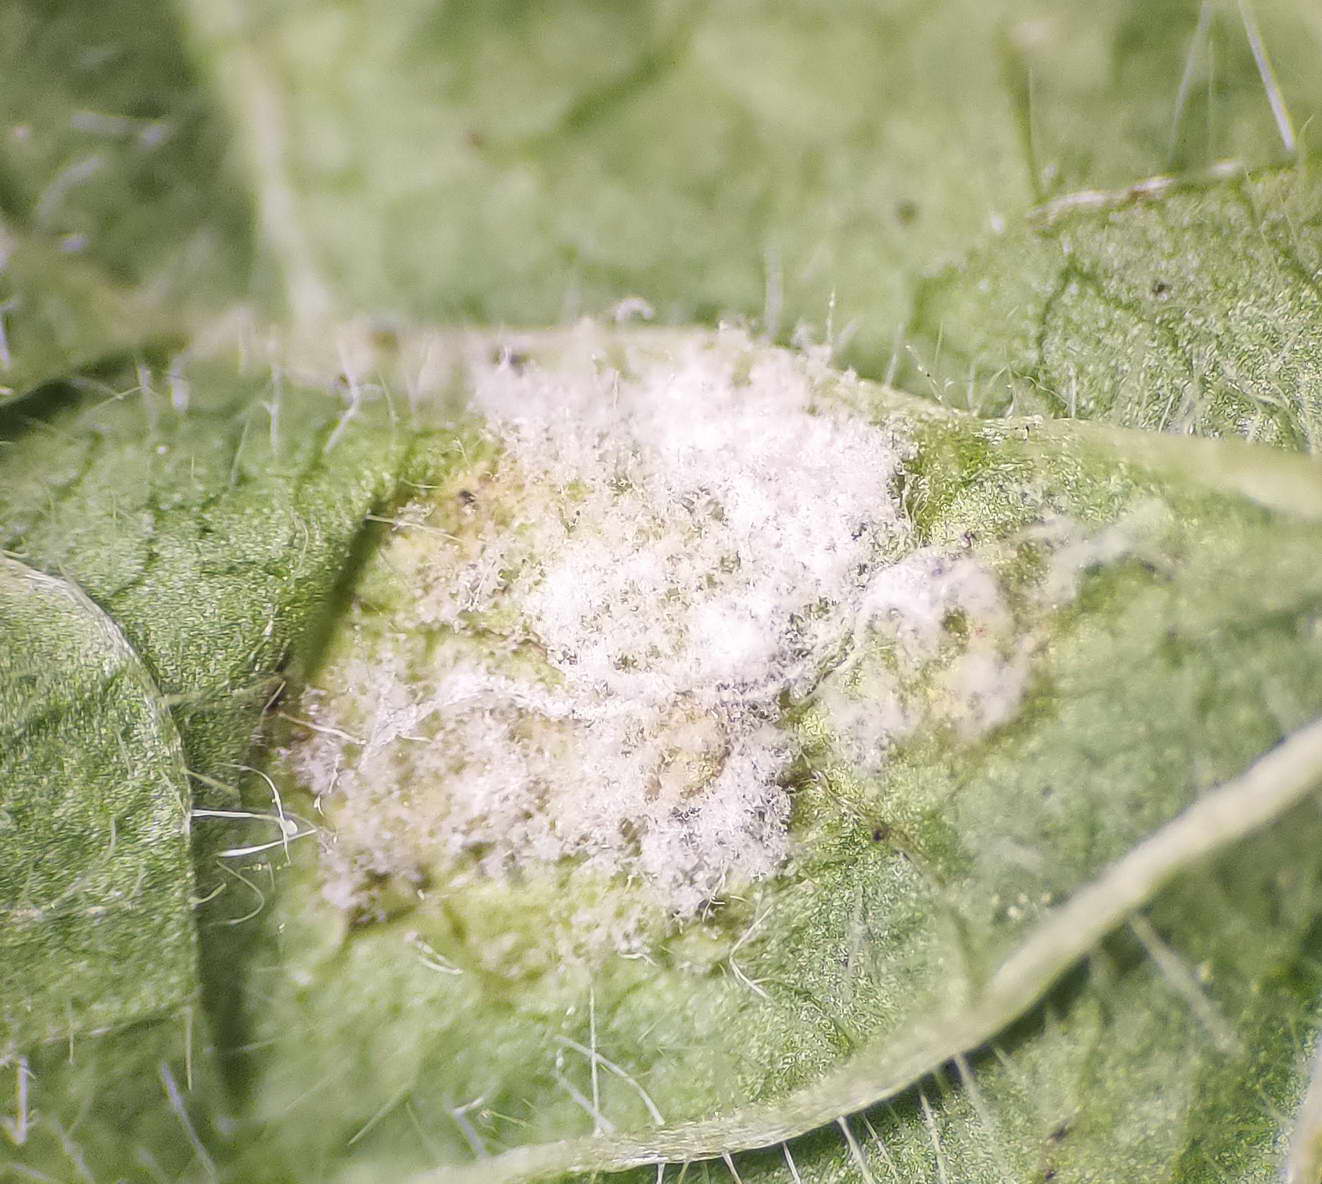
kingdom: Chromista
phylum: Oomycota
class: Peronosporea
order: Peronosporales
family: Peronosporaceae
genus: Hyaloperonospora
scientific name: Hyaloperonospora niessliana
